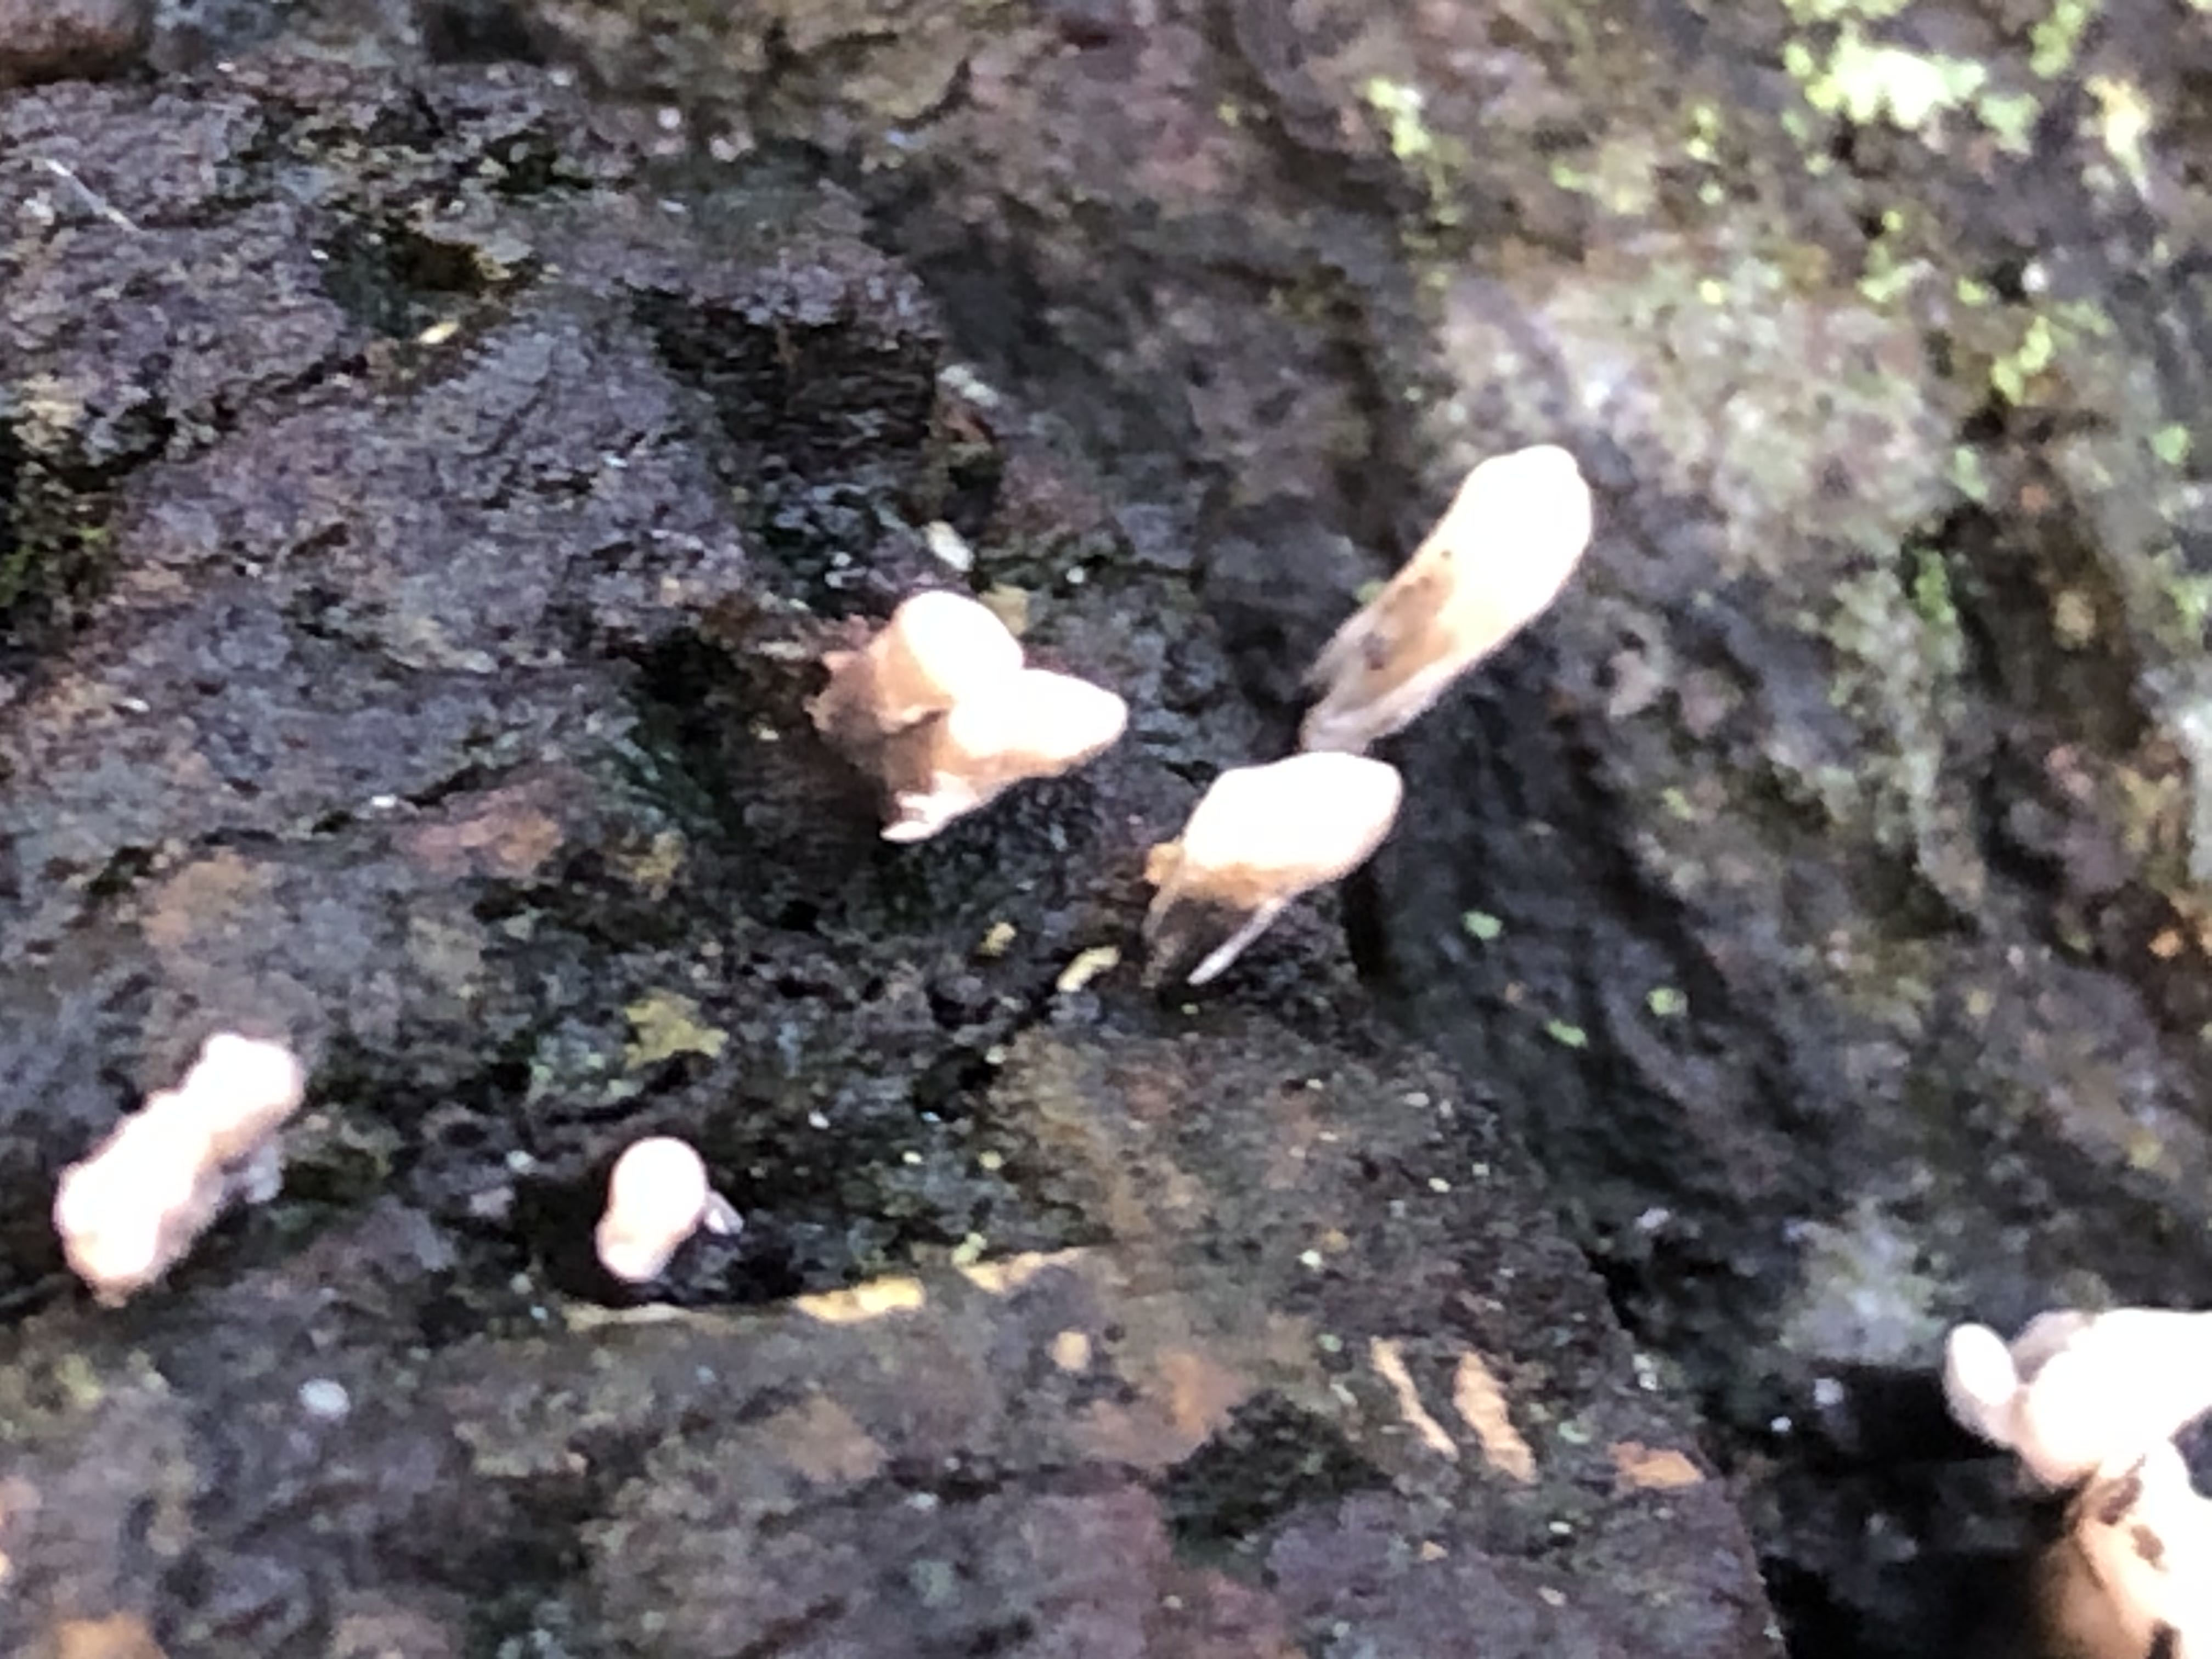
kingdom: Fungi
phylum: Ascomycota
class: Sordariomycetes
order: Xylariales
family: Xylariaceae
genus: Xylaria
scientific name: Xylaria hypoxylon
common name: grenet stødsvamp
